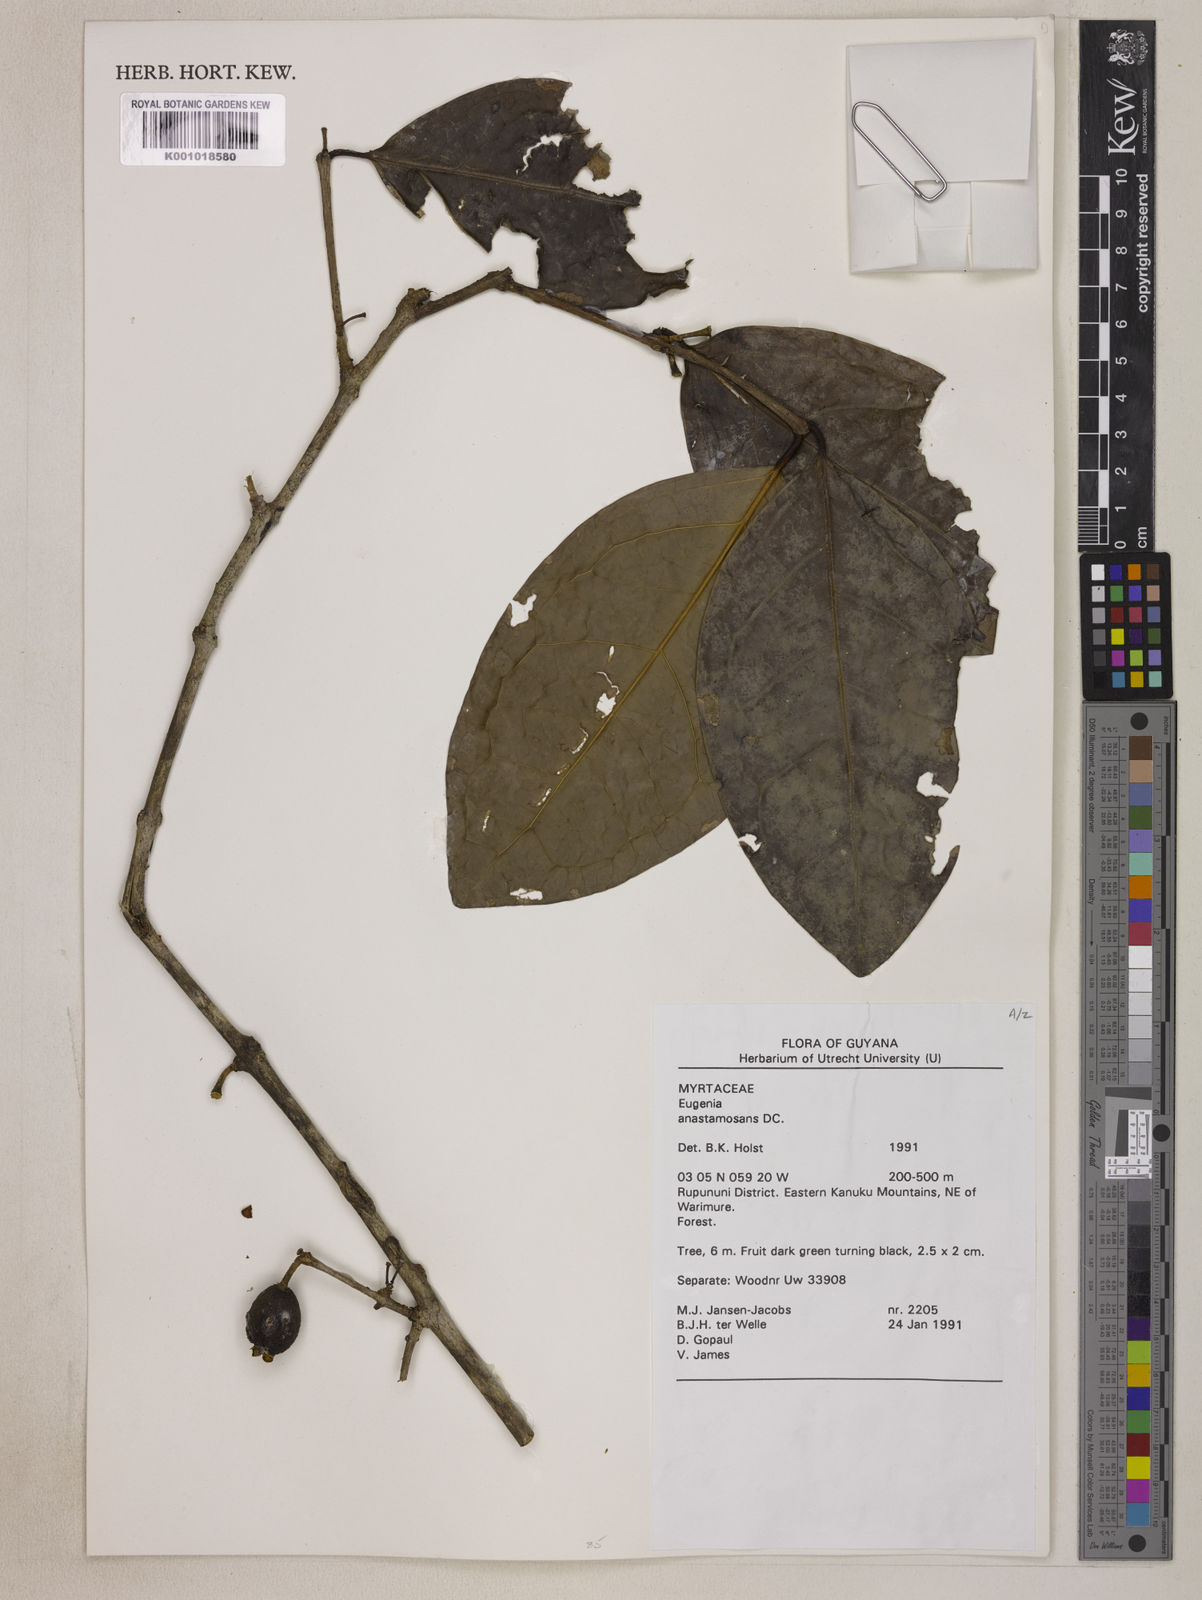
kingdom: Plantae
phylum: Tracheophyta
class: Magnoliopsida
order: Myrtales
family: Myrtaceae
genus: Eugenia
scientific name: Eugenia anastomosans
